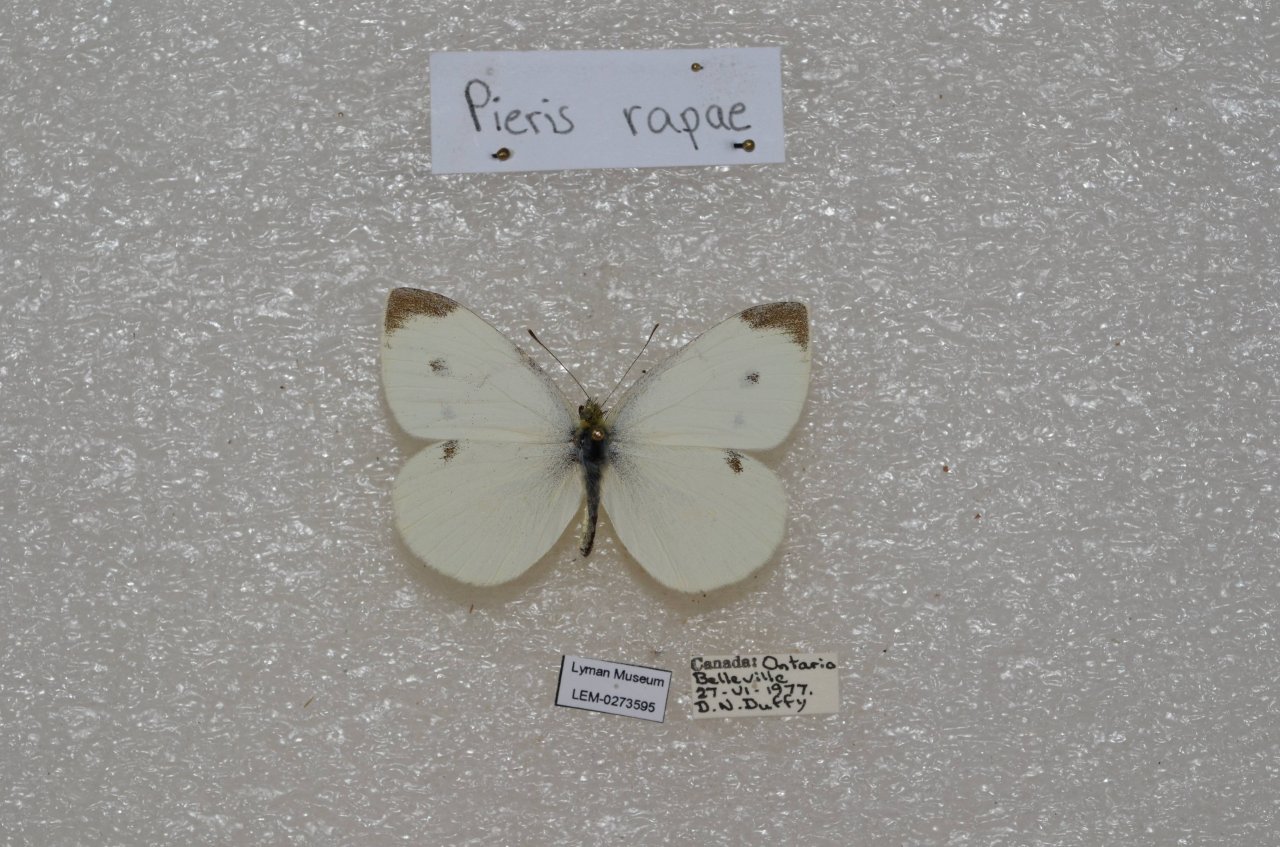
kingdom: Animalia
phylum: Arthropoda
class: Insecta
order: Lepidoptera
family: Pieridae
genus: Pieris
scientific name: Pieris rapae
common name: Cabbage White
